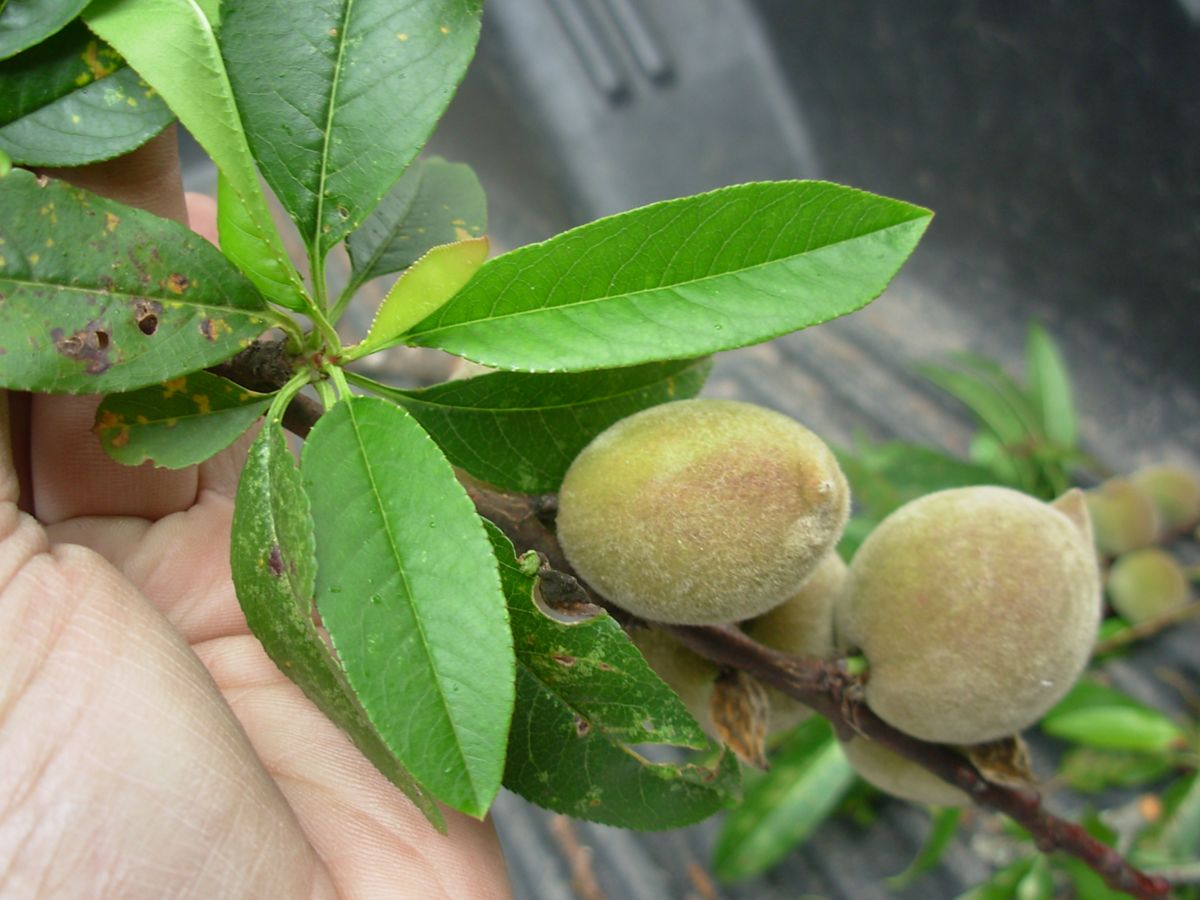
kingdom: Plantae
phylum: Tracheophyta
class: Magnoliopsida
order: Rosales
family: Rosaceae
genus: Prunus
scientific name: Prunus persica
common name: Peach
